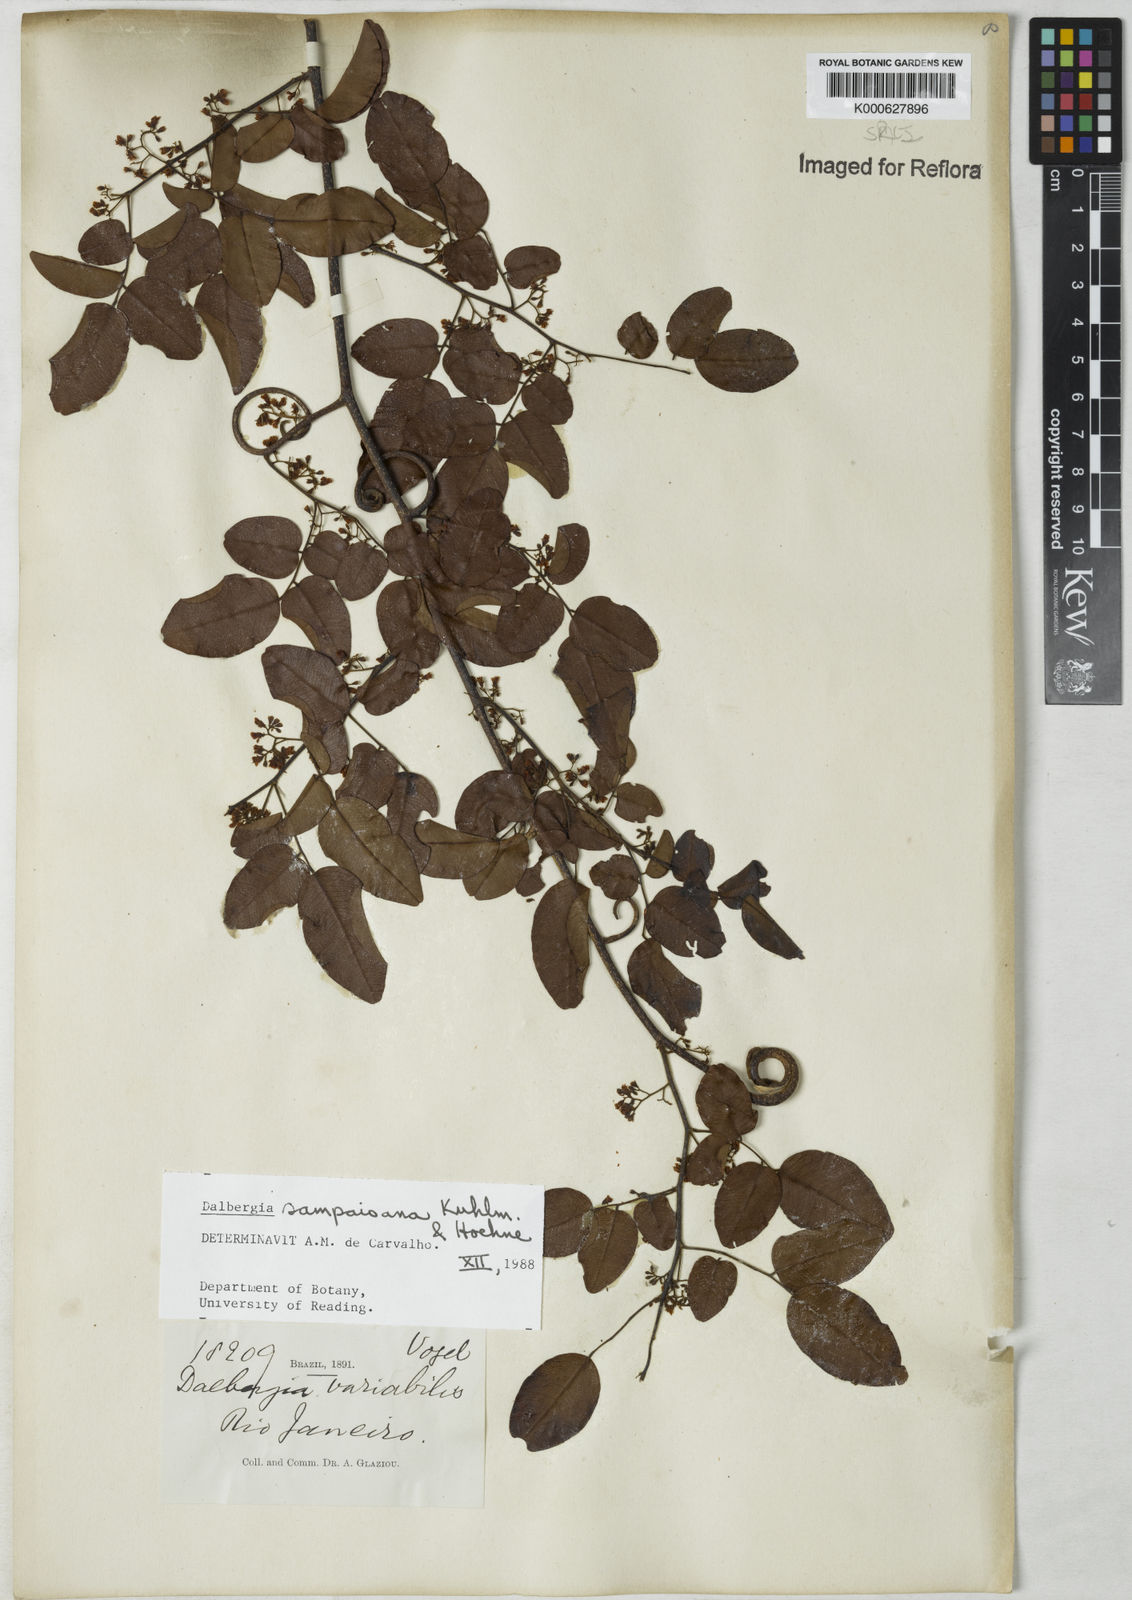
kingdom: Plantae
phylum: Tracheophyta
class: Magnoliopsida
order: Fabales
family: Fabaceae
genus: Dalbergia
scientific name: Dalbergia sampaioana
